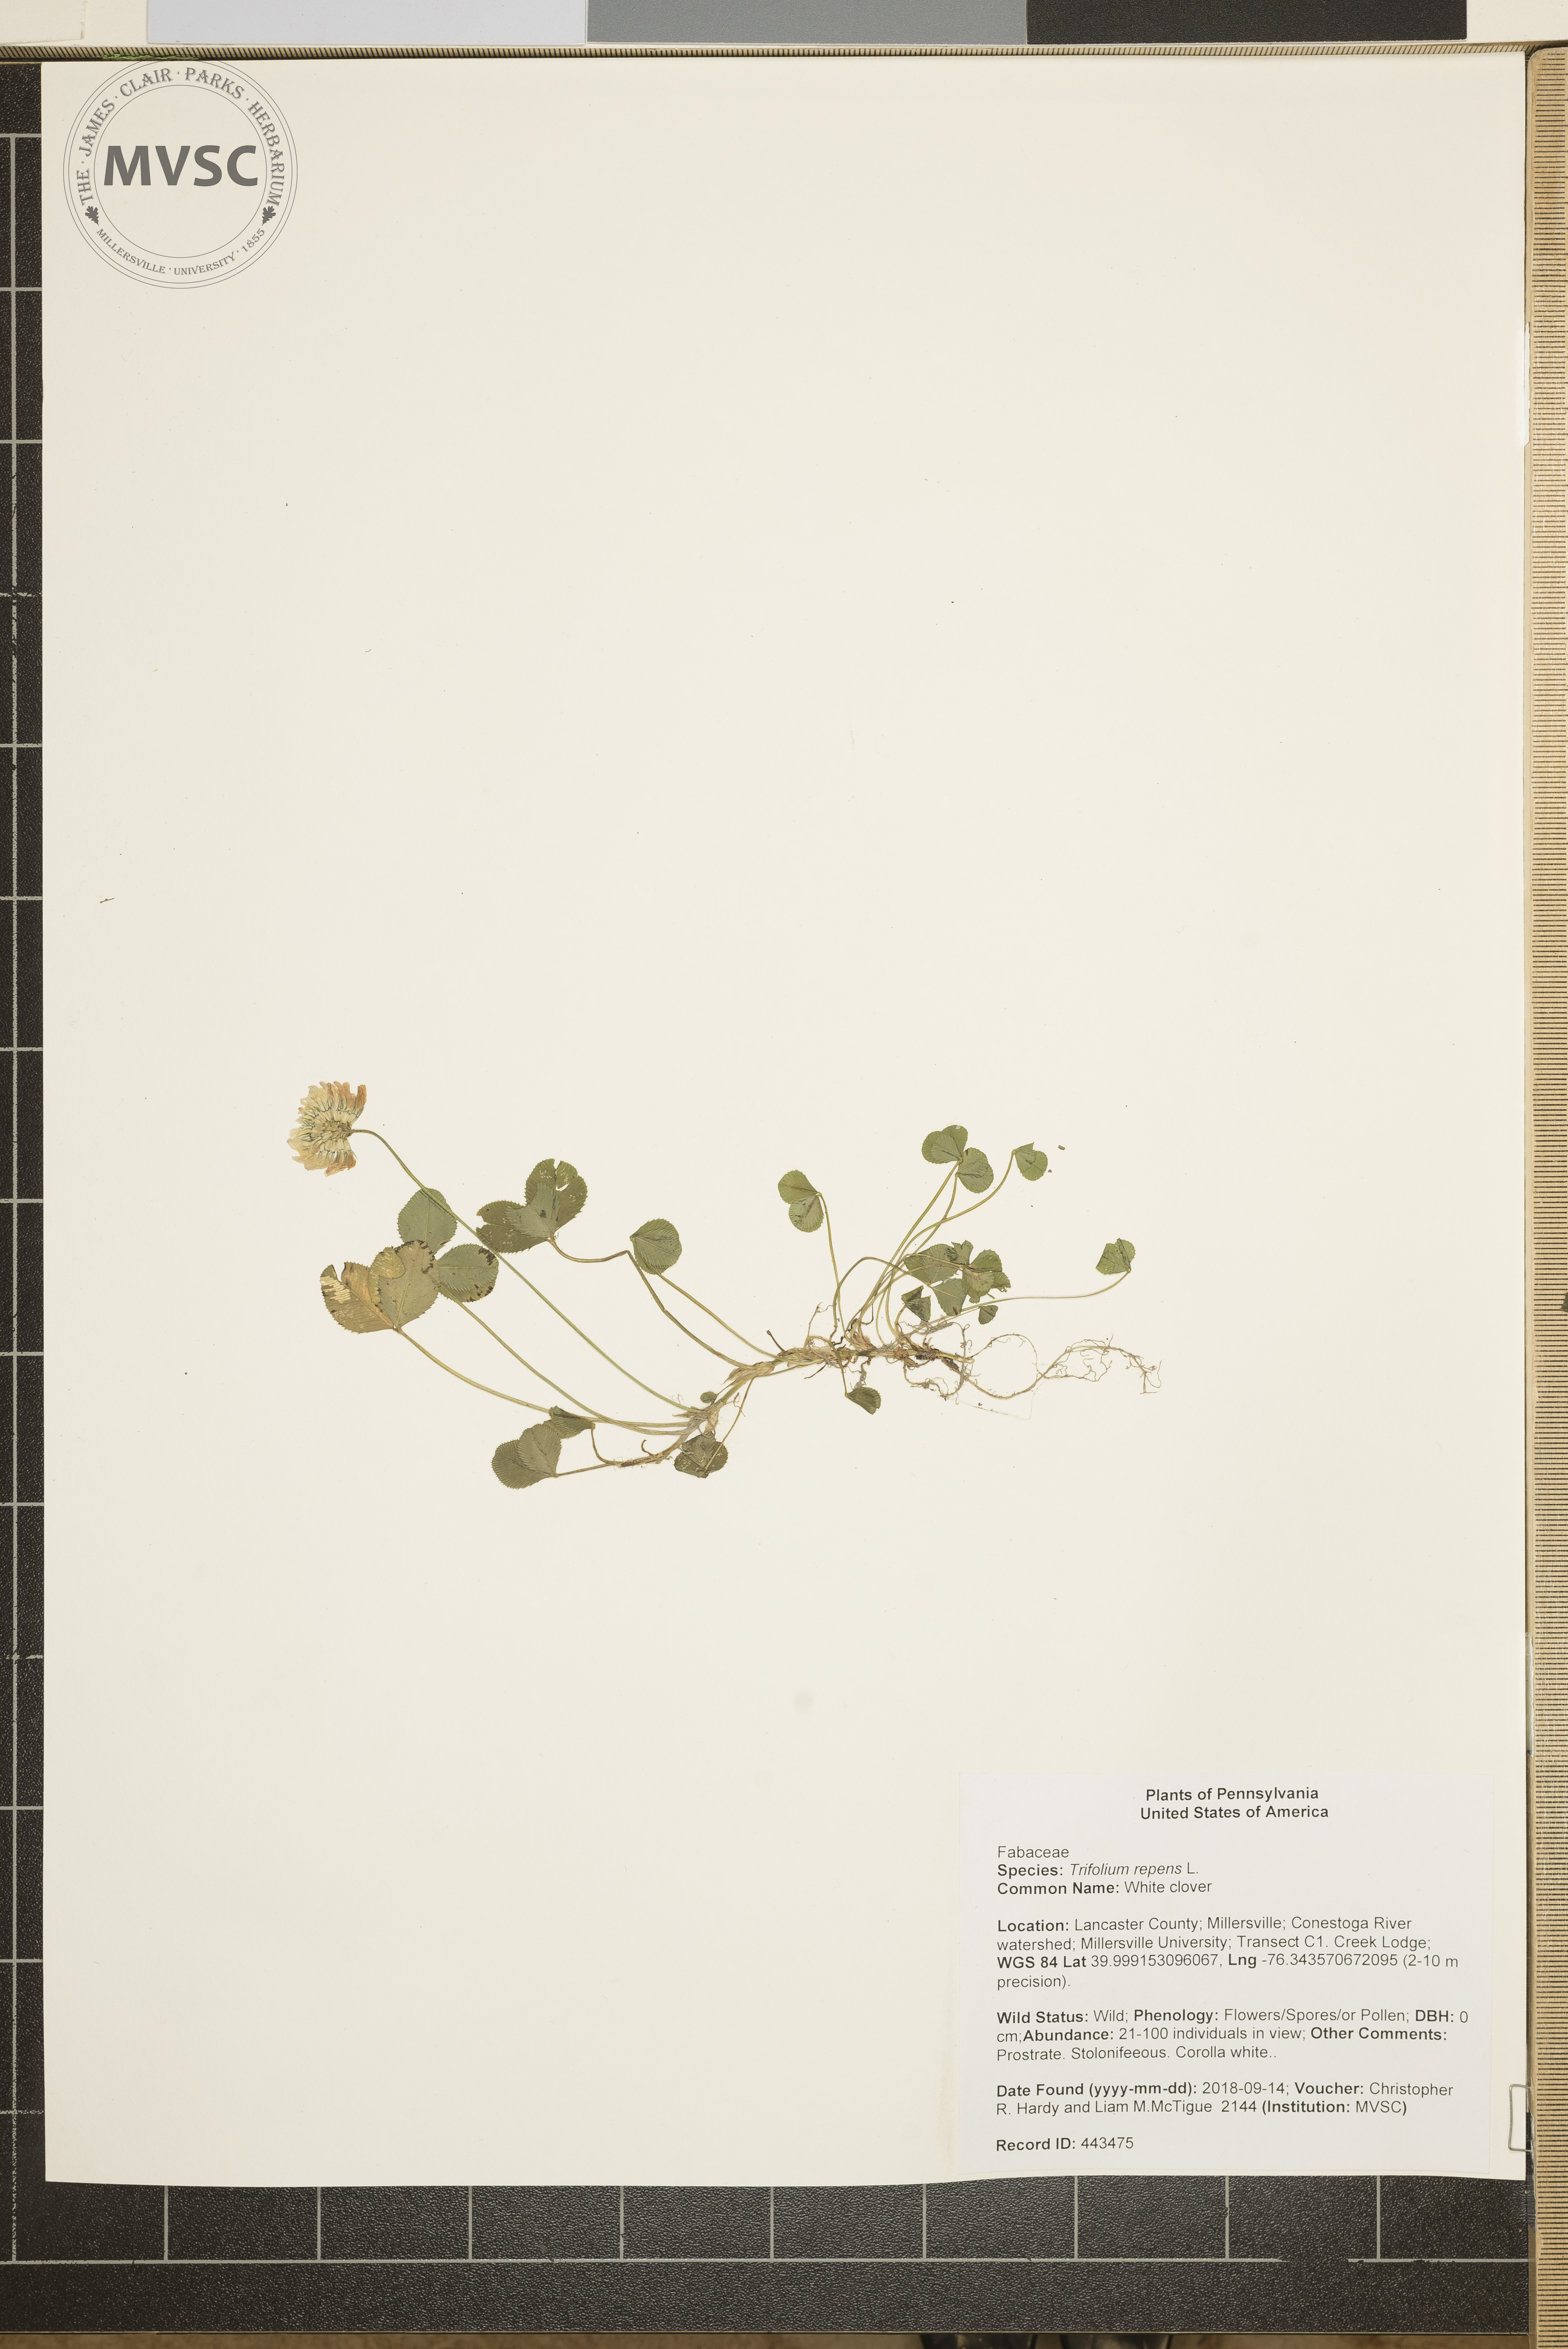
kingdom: Plantae
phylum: Tracheophyta
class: Magnoliopsida
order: Fabales
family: Fabaceae
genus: Trifolium
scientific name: Trifolium repens
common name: White clover
